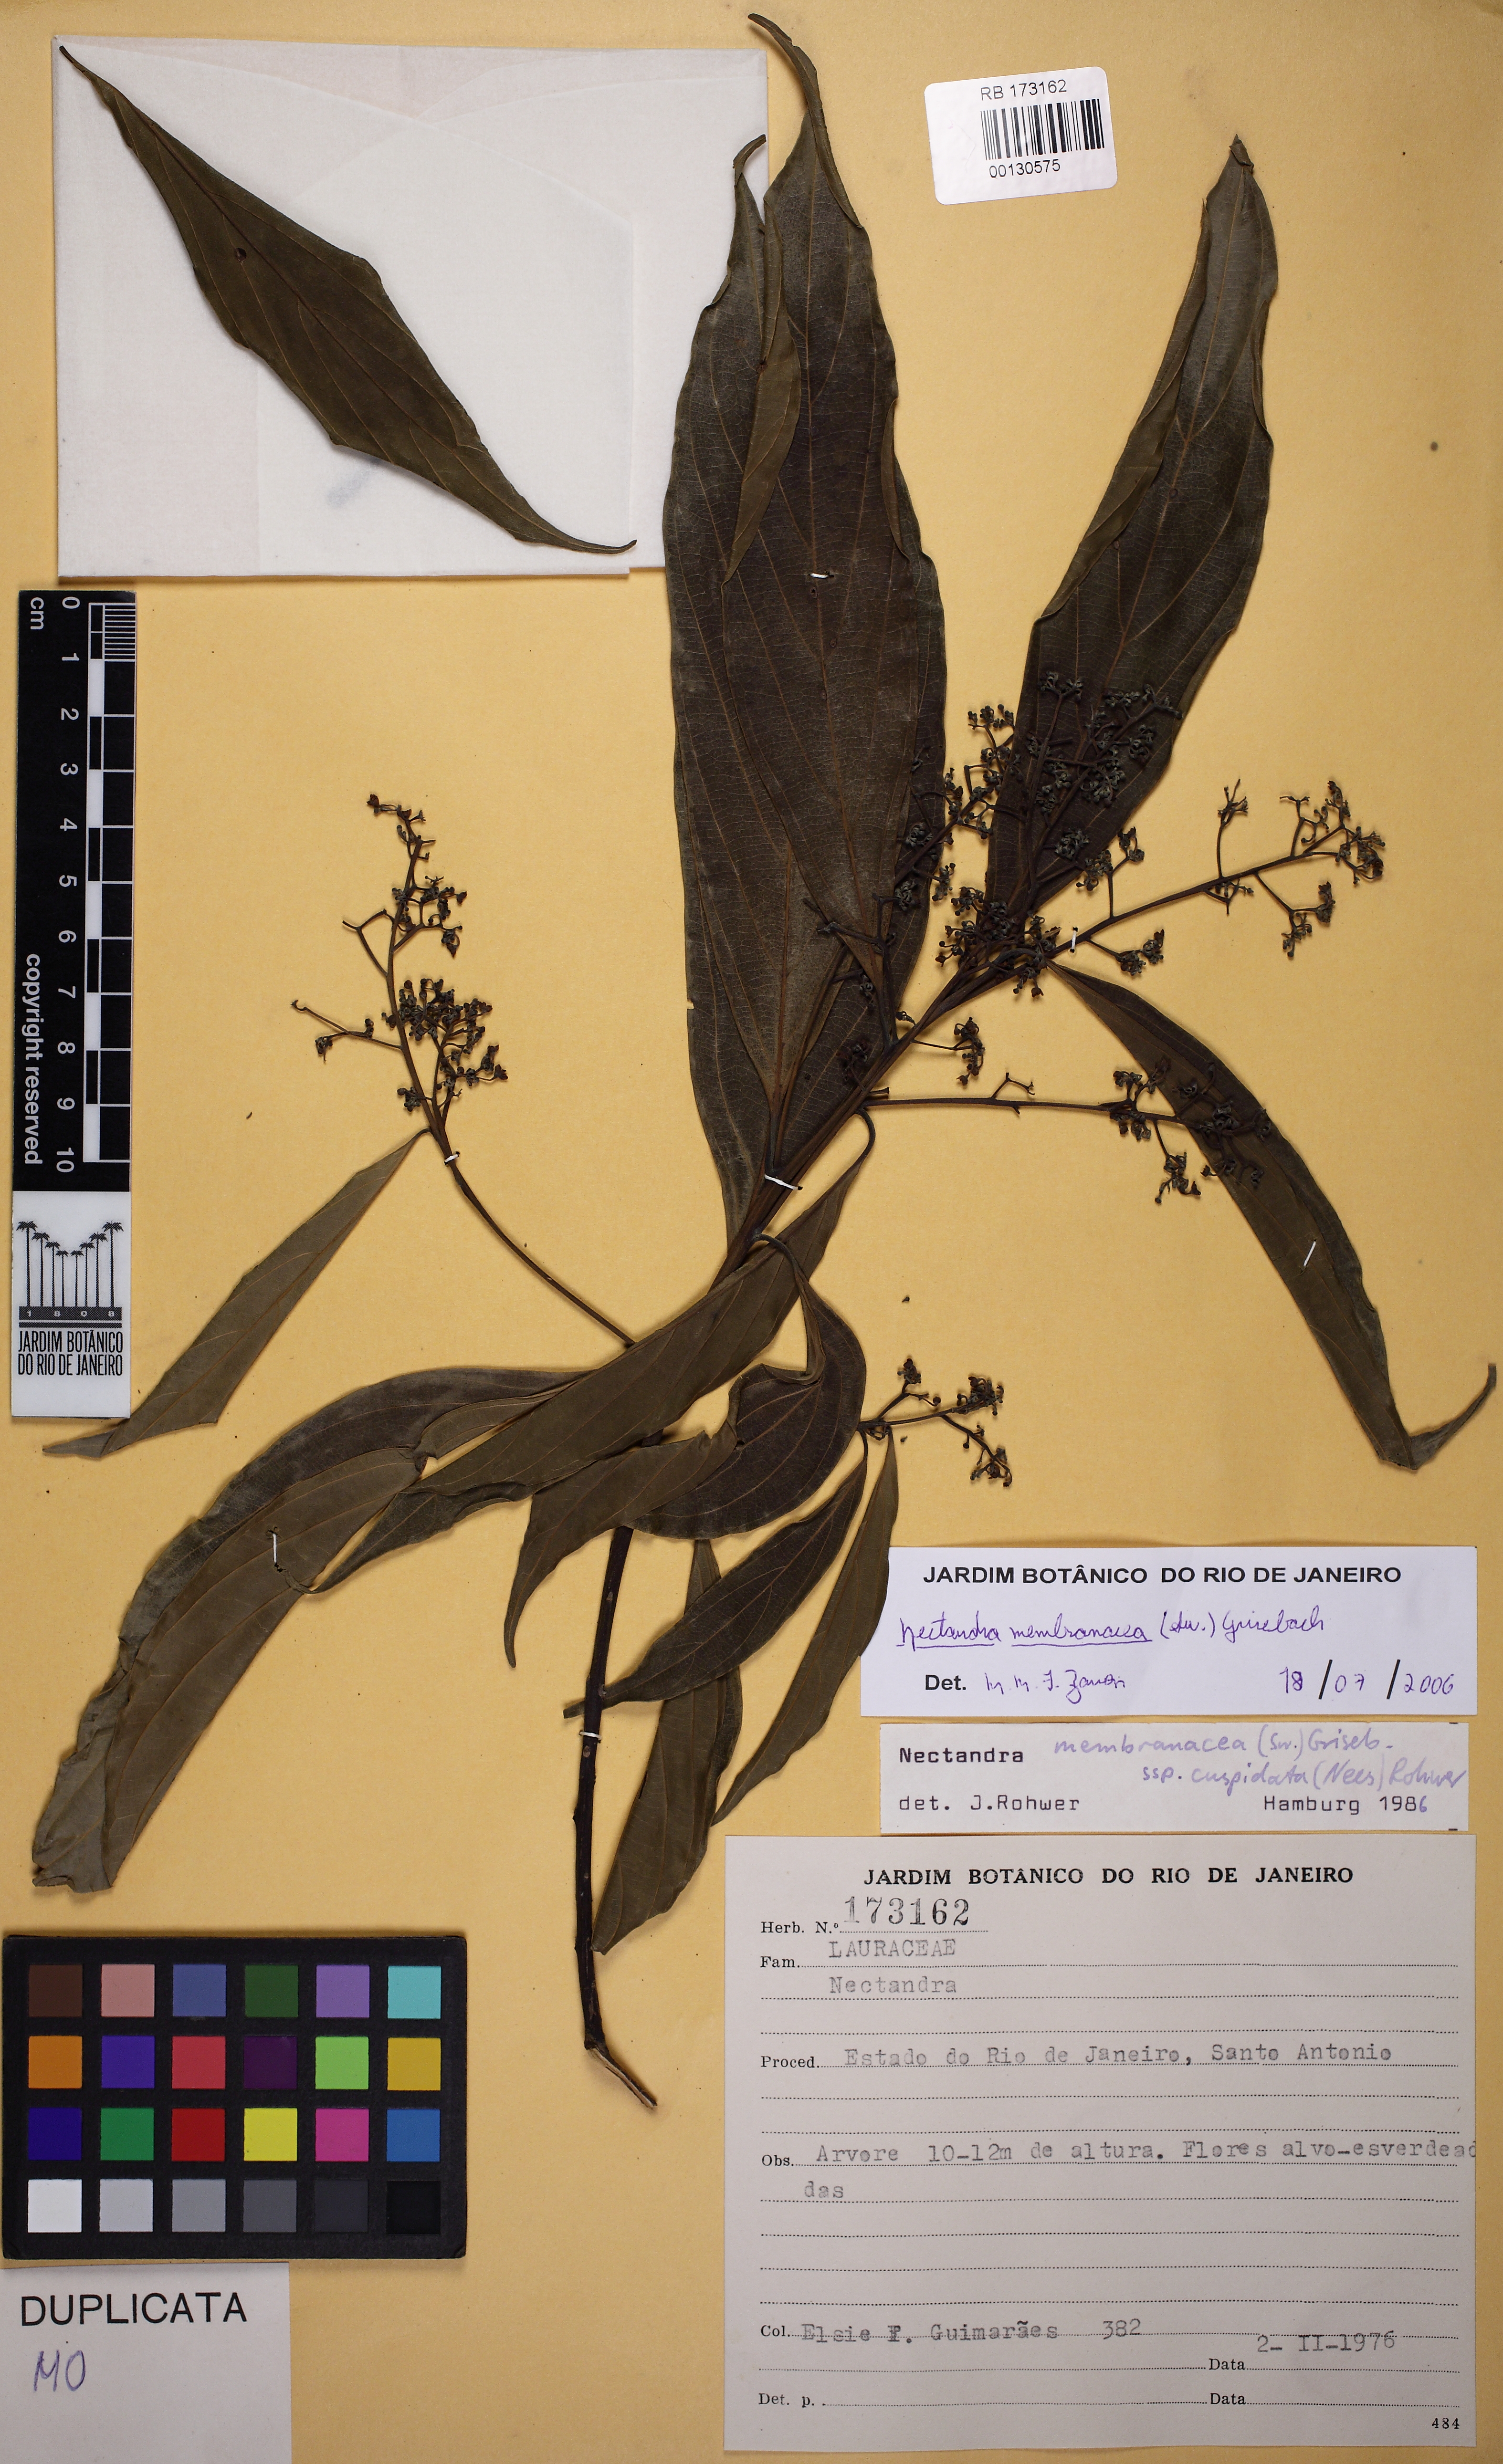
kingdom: Plantae
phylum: Tracheophyta
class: Magnoliopsida
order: Laurales
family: Lauraceae
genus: Nectandra
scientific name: Nectandra membranacea
